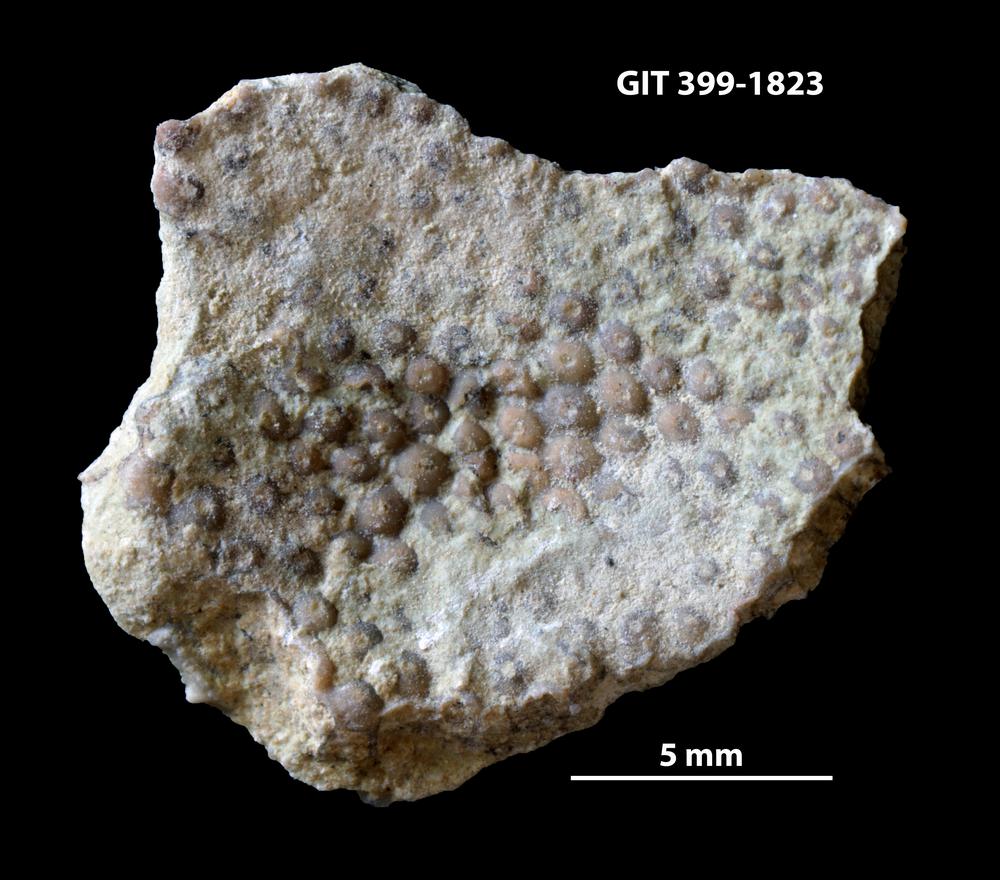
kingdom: Plantae
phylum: Chlorophyta
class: Ulvophyceae
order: Cyclocrinales
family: Cyclocrinaceae
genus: Mastopora
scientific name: Mastopora concava
